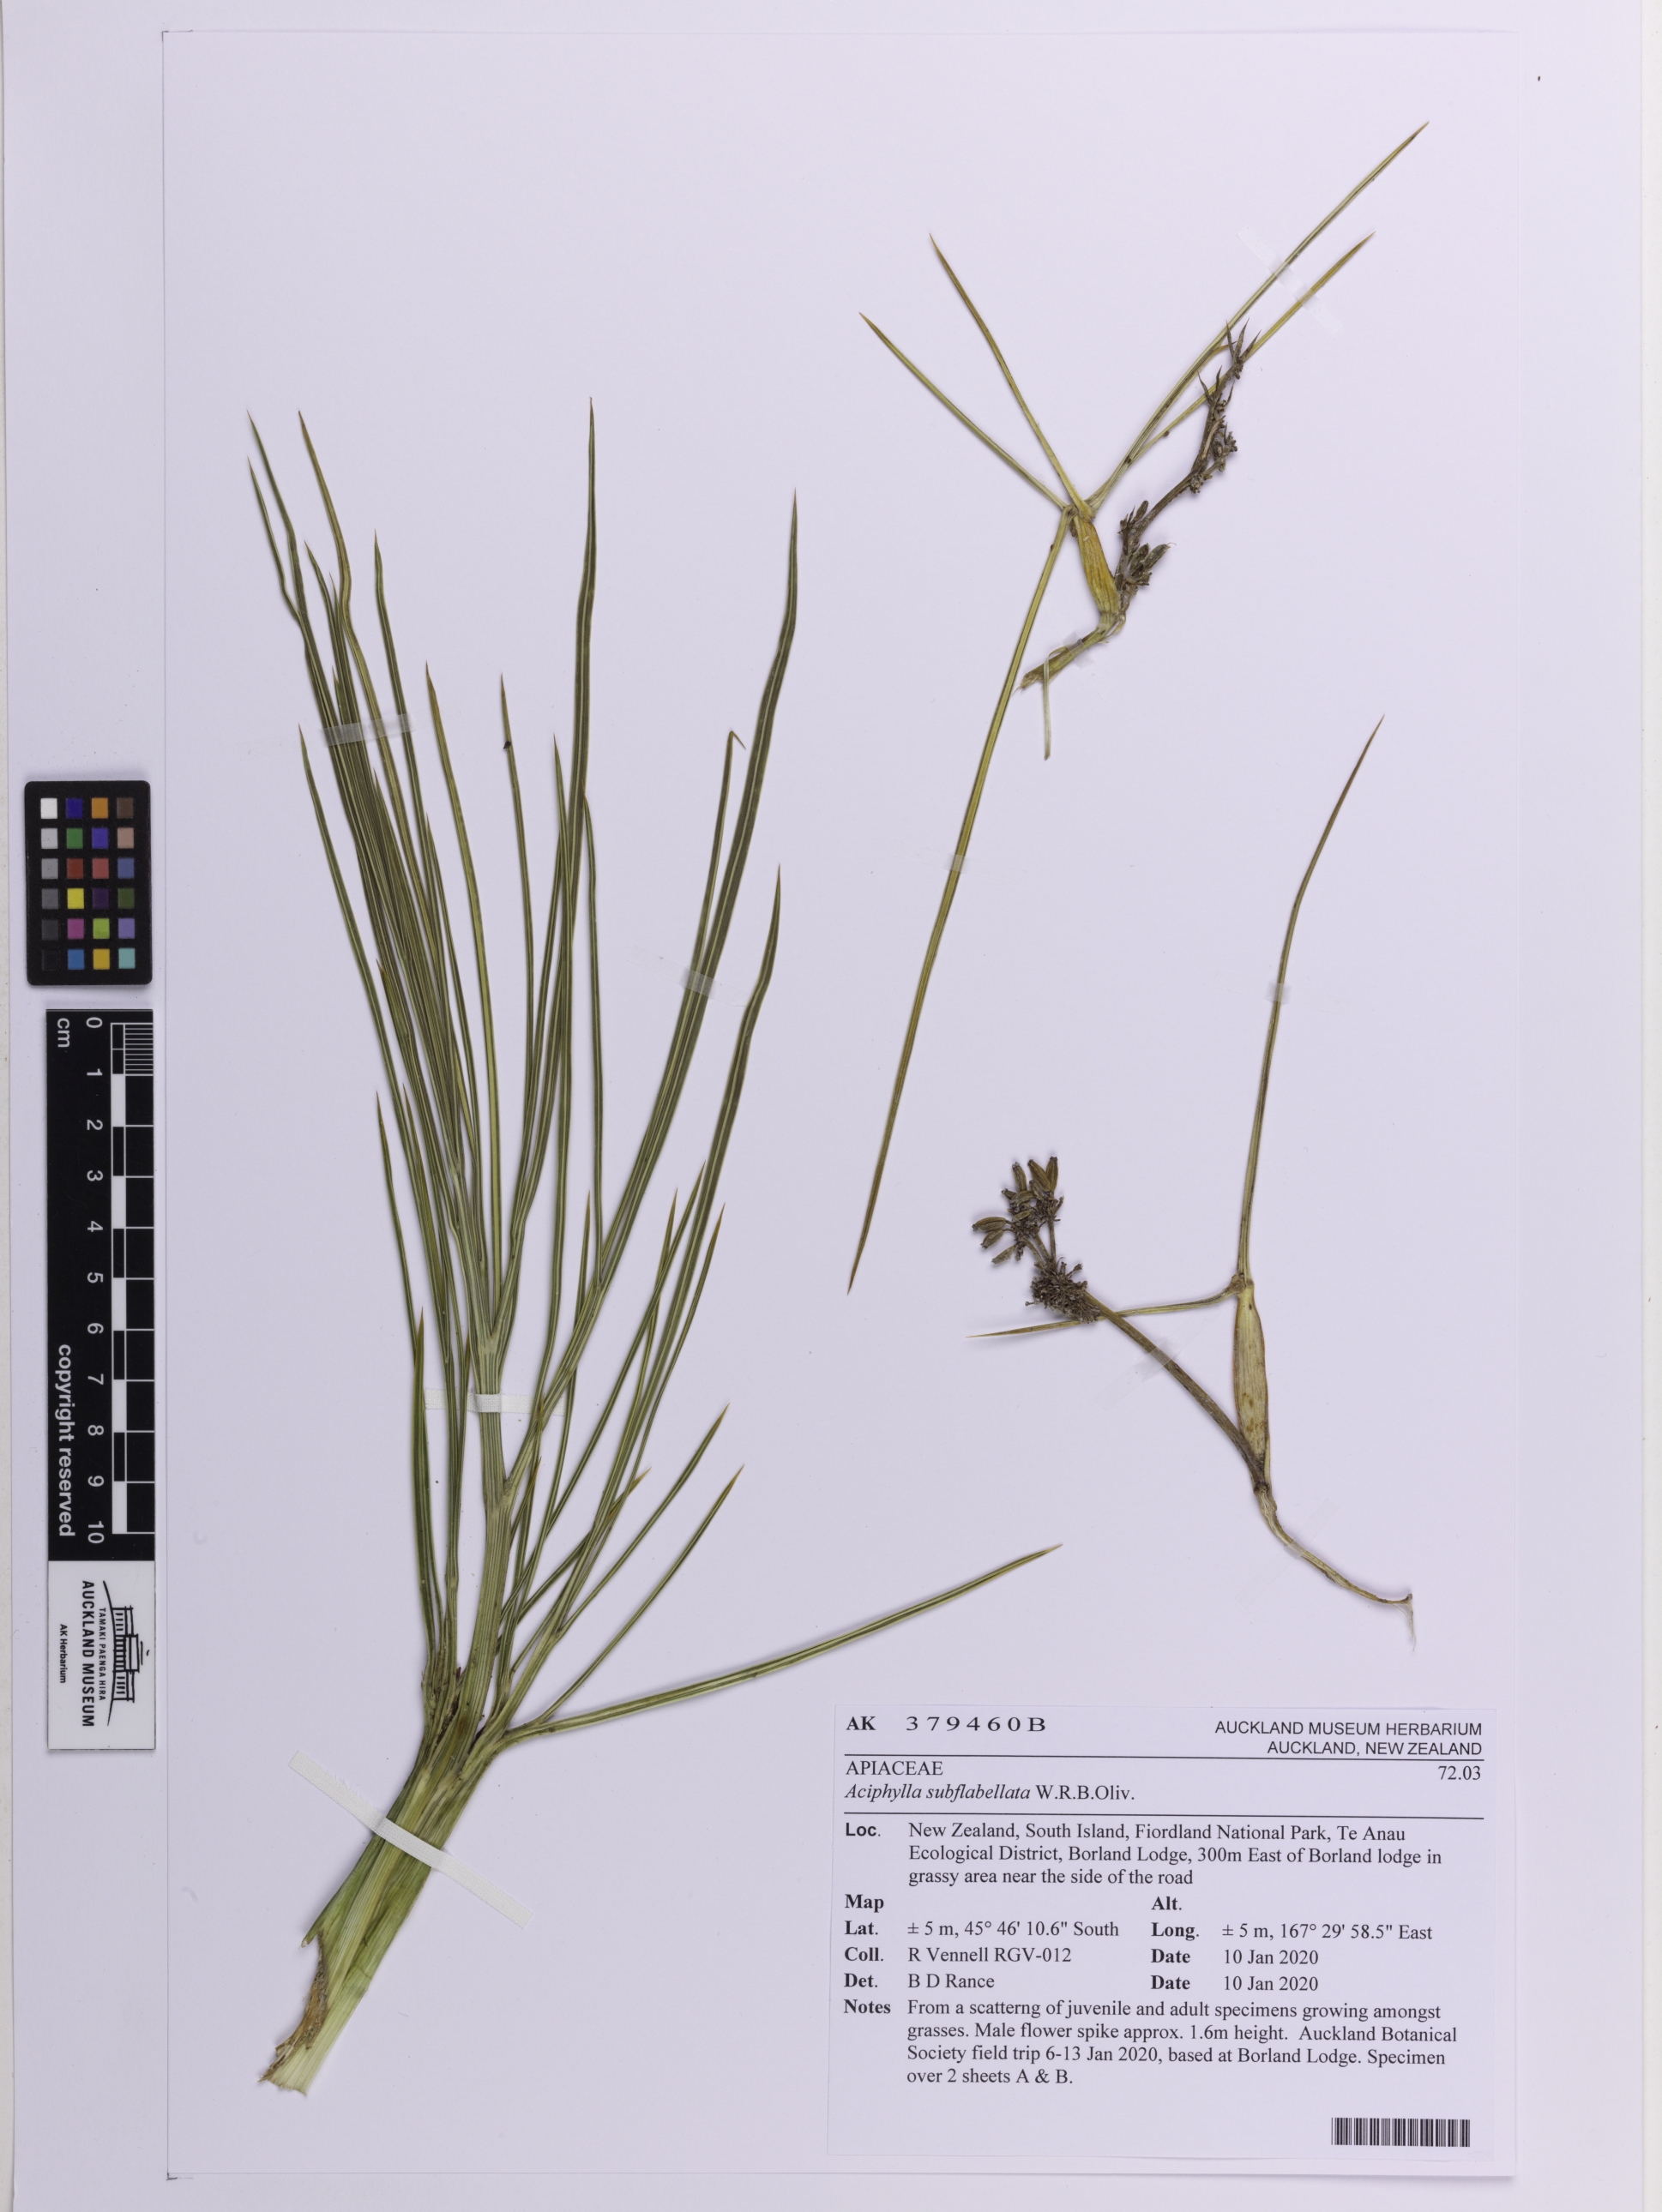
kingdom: Plantae
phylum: Tracheophyta
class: Magnoliopsida
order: Apiales
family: Apiaceae
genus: Aciphylla
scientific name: Aciphylla subflabellata
